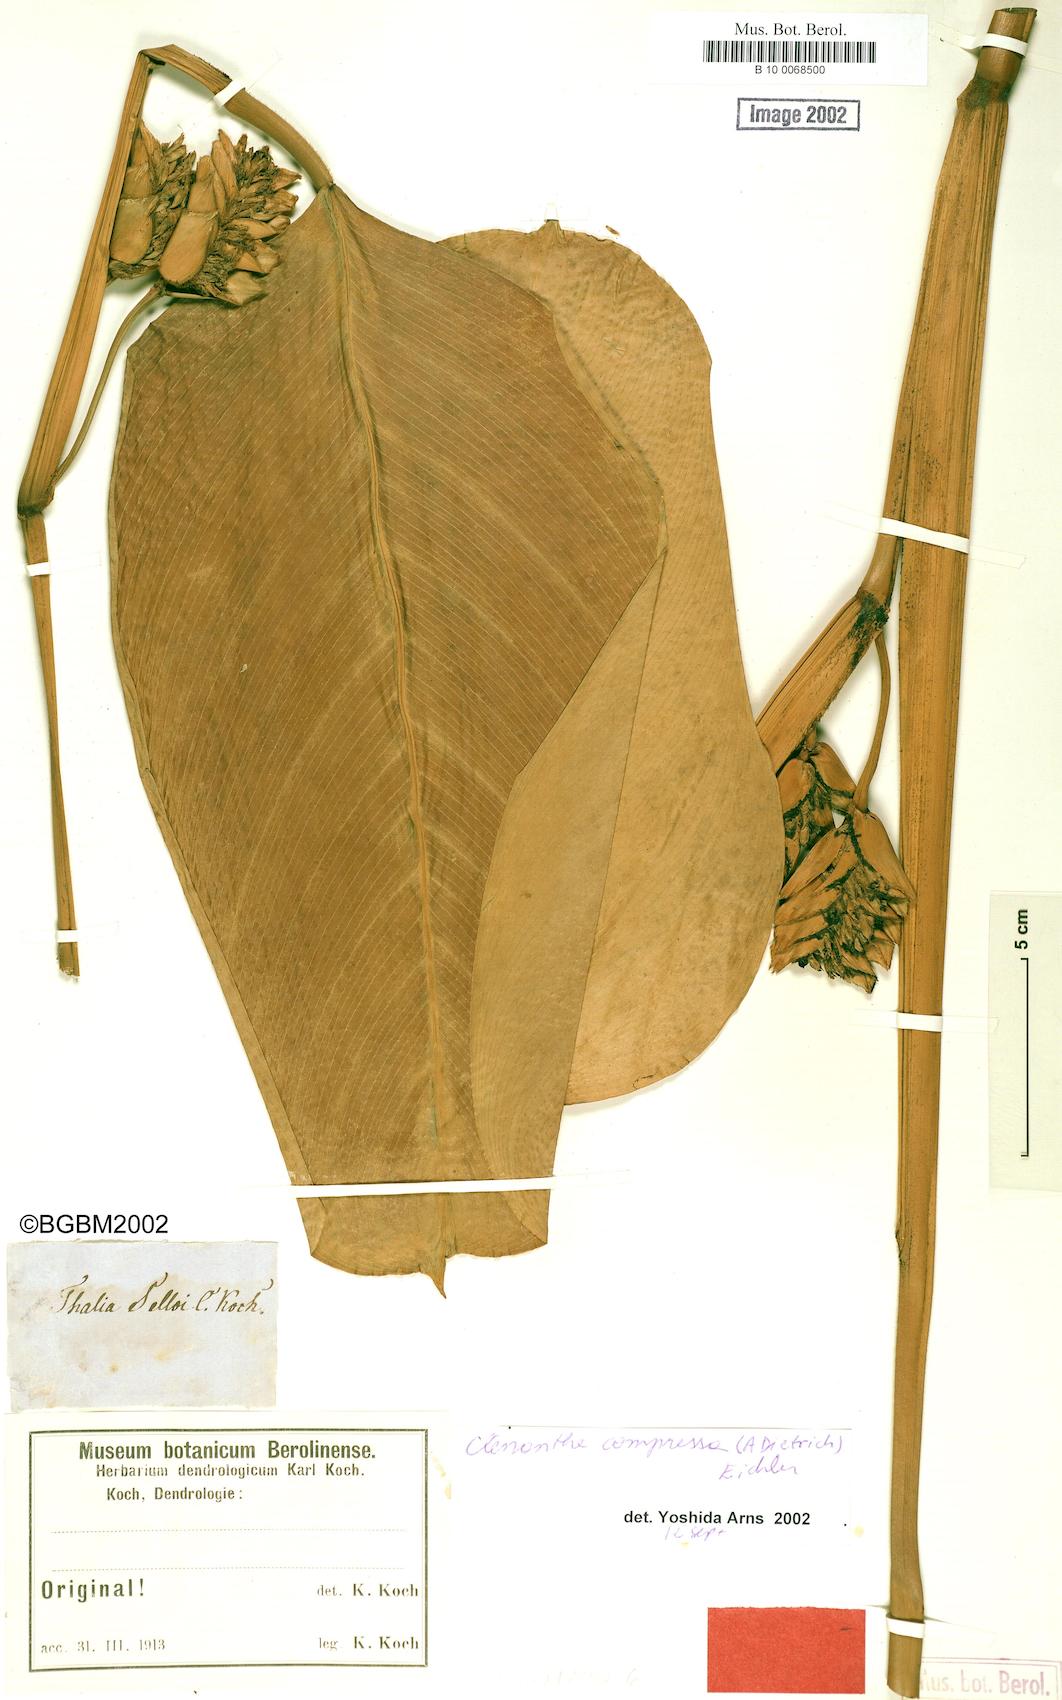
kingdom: Plantae
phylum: Tracheophyta
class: Liliopsida
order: Zingiberales
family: Marantaceae
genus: Ctenanthe
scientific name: Ctenanthe compressa
